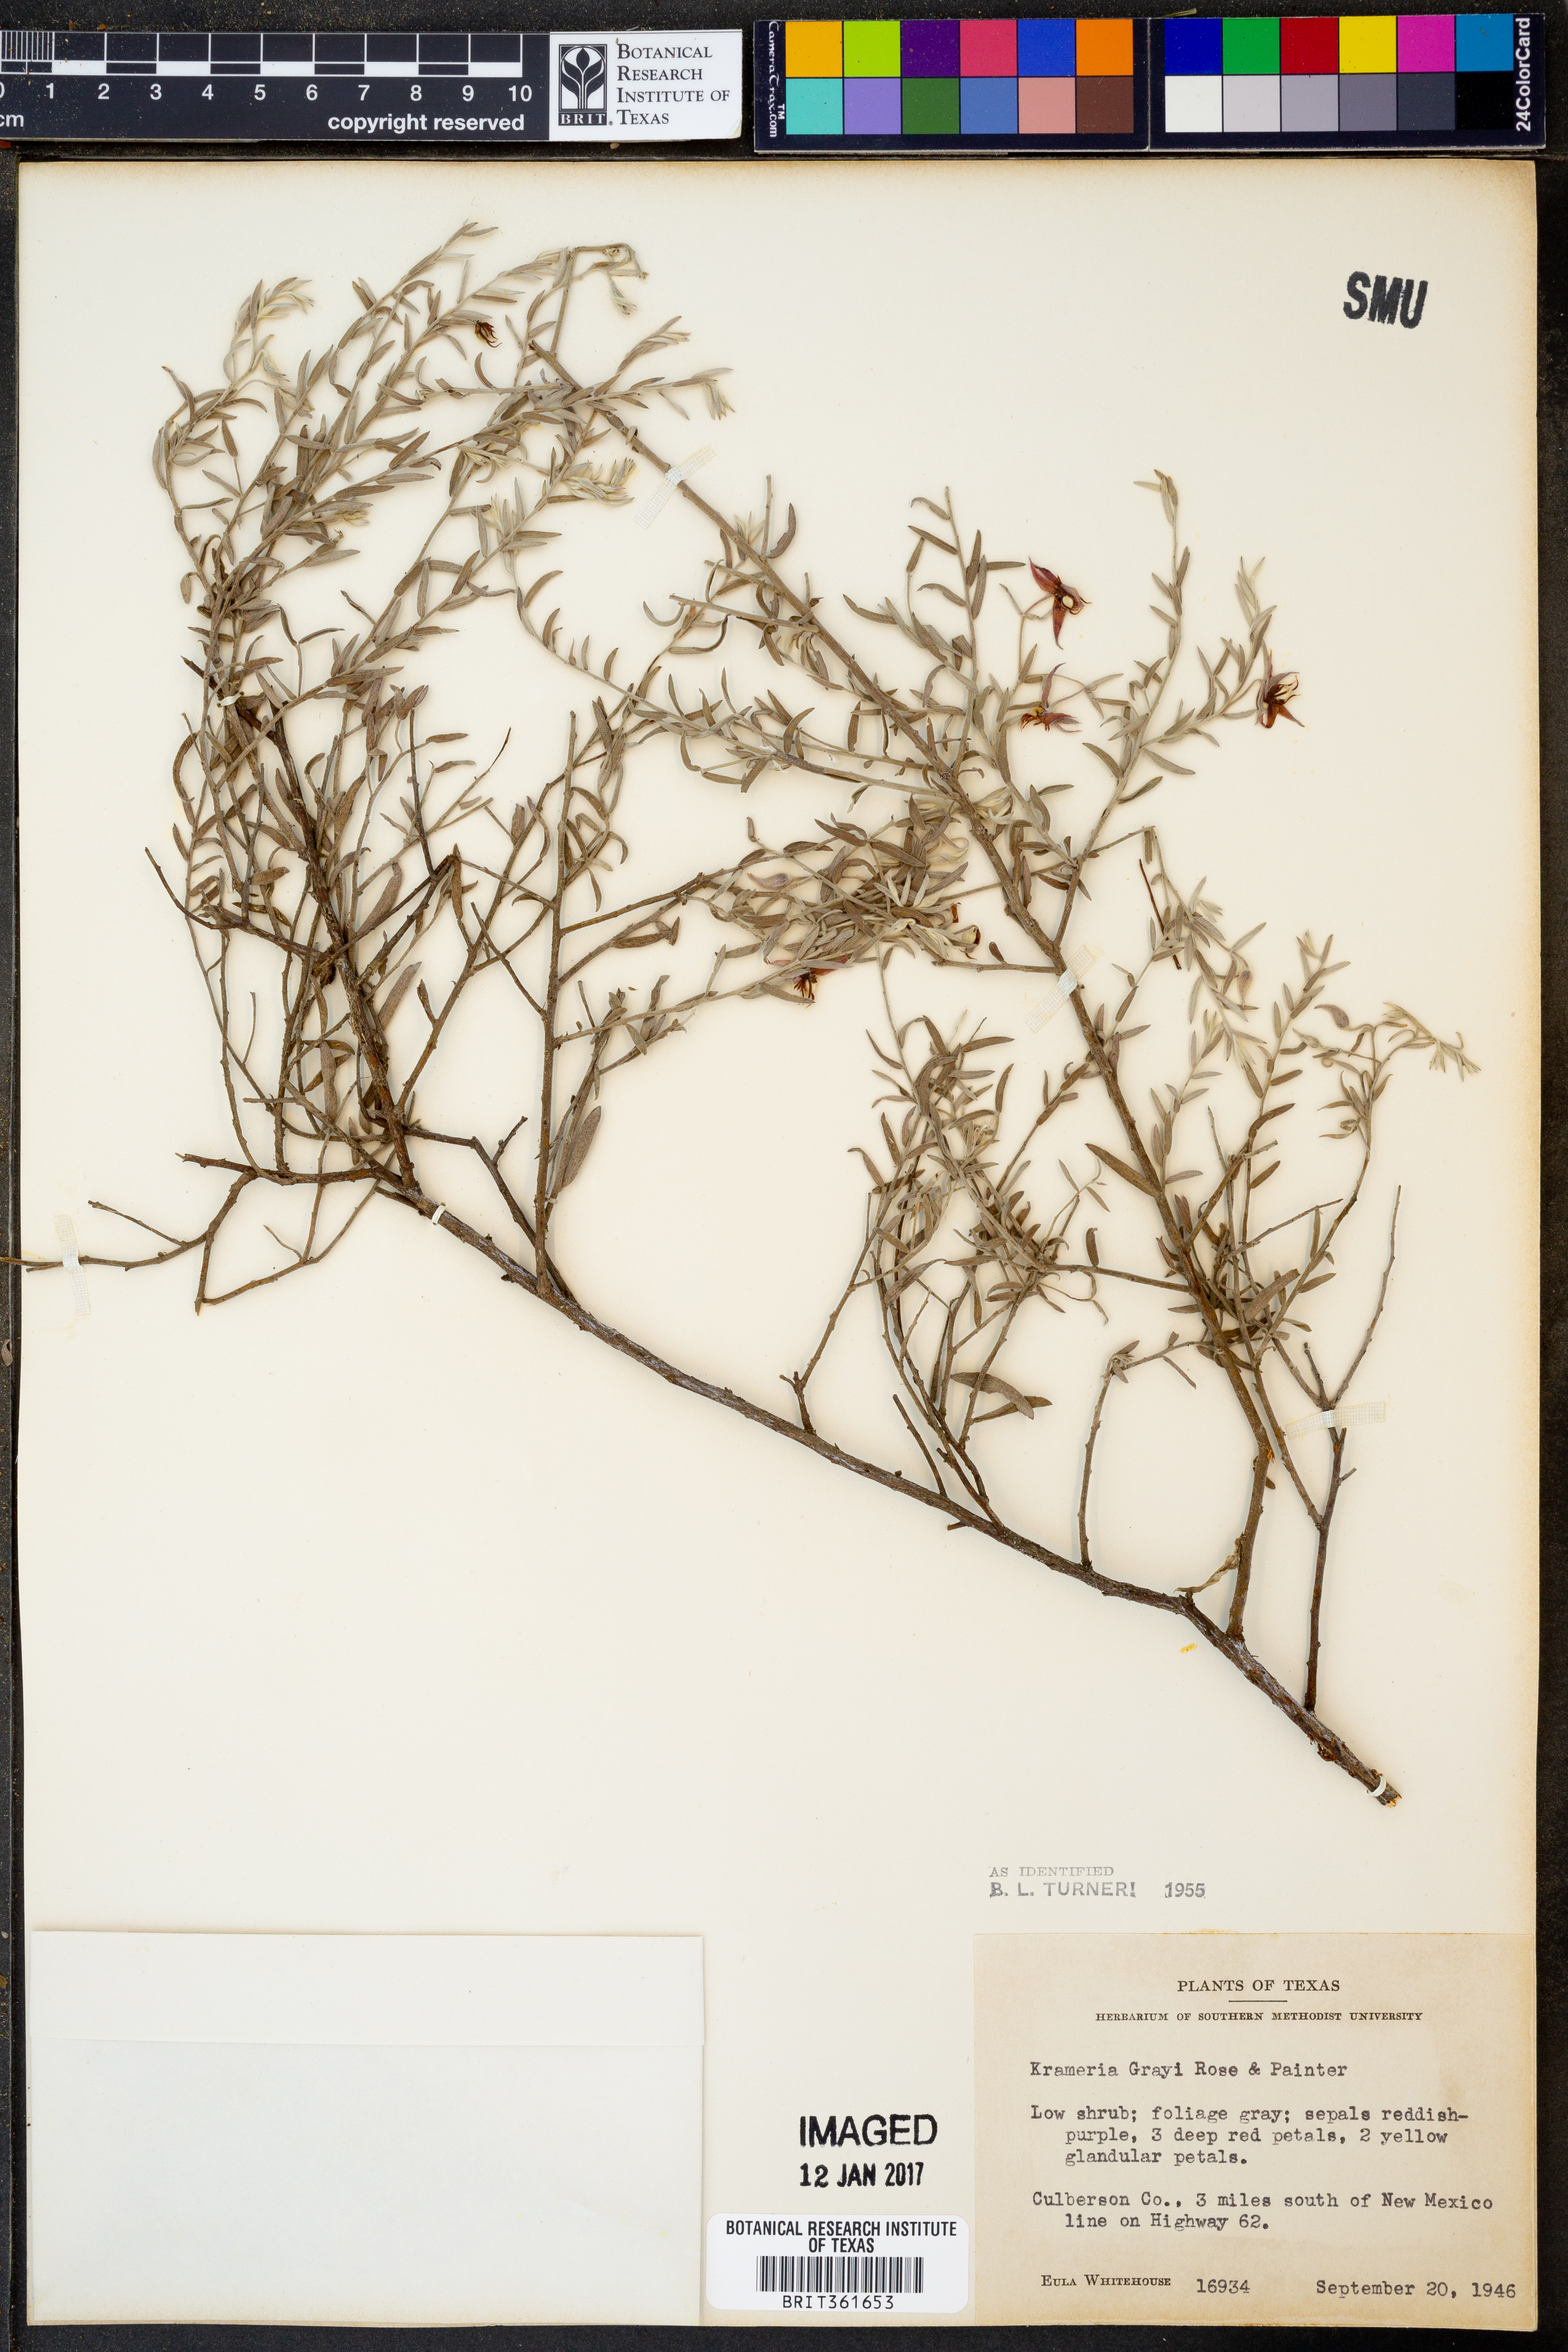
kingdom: Plantae
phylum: Tracheophyta
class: Magnoliopsida
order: Zygophyllales
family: Krameriaceae
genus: Krameria
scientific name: Krameria bicolor
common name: White ratany
